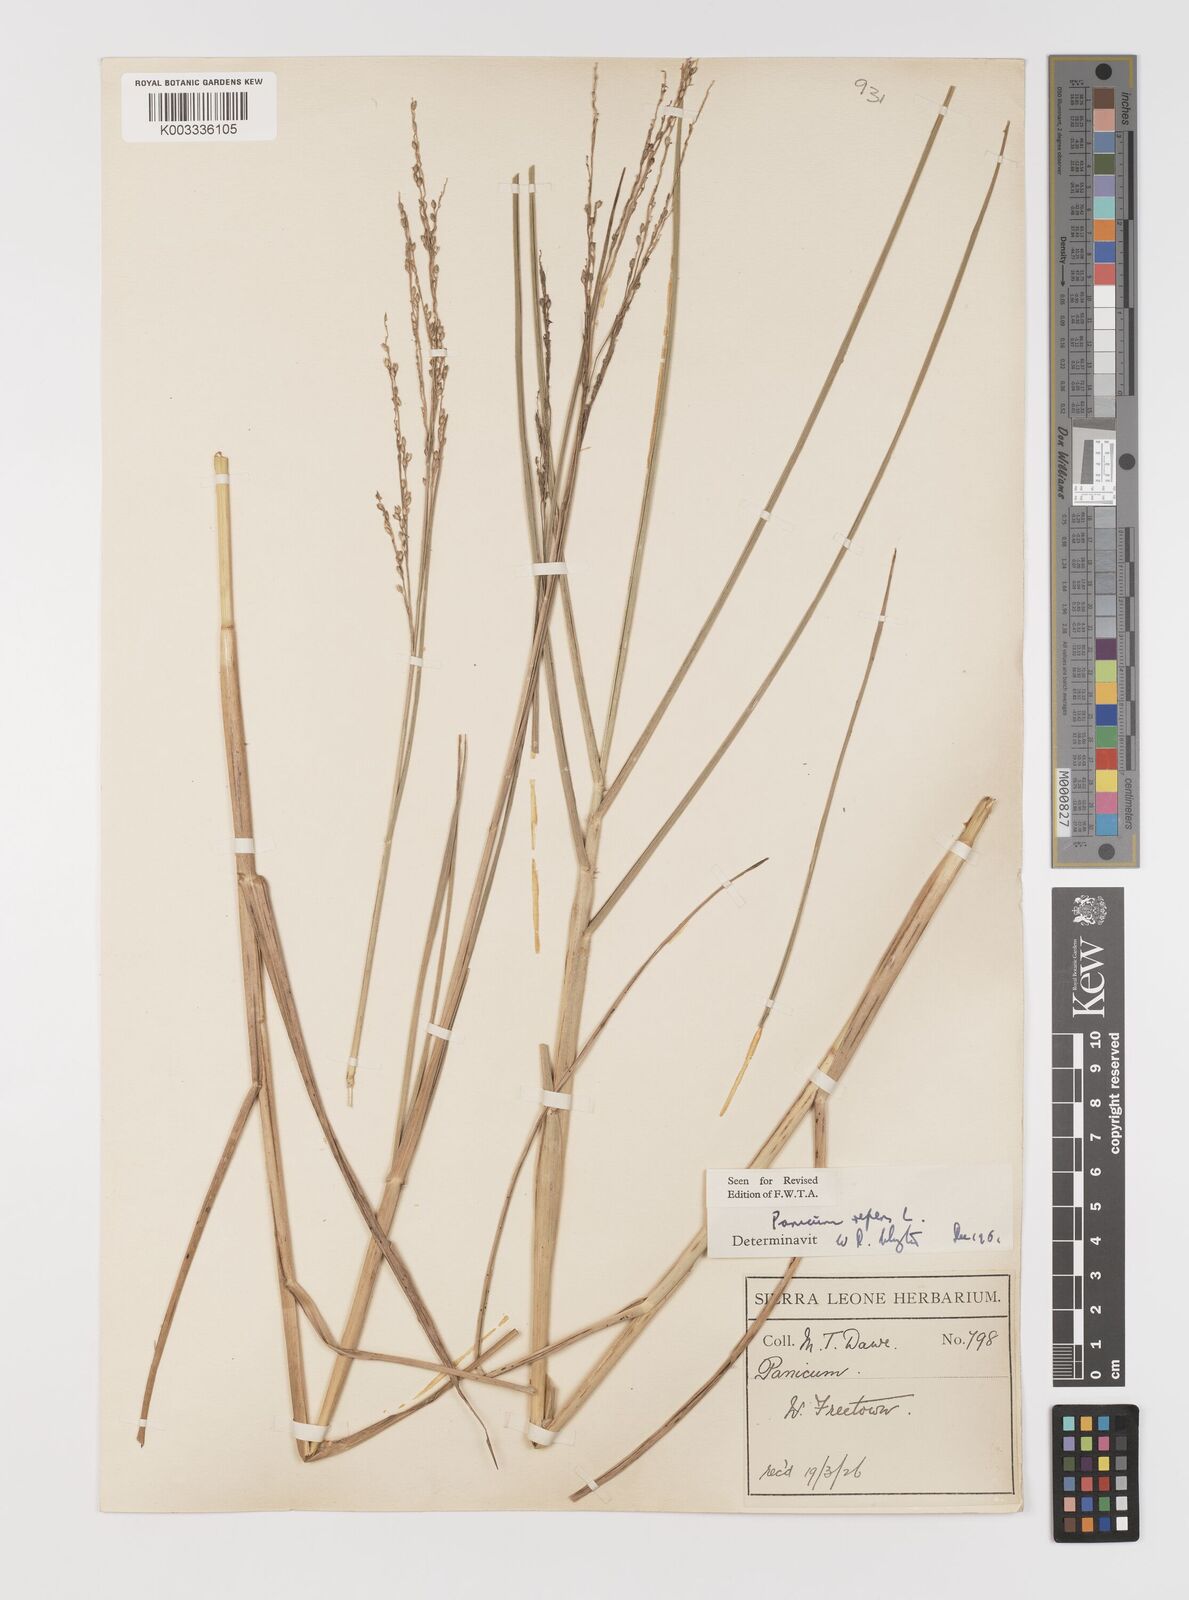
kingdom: Plantae
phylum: Tracheophyta
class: Liliopsida
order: Poales
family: Poaceae
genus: Panicum
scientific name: Panicum repens
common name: Torpedo grass
